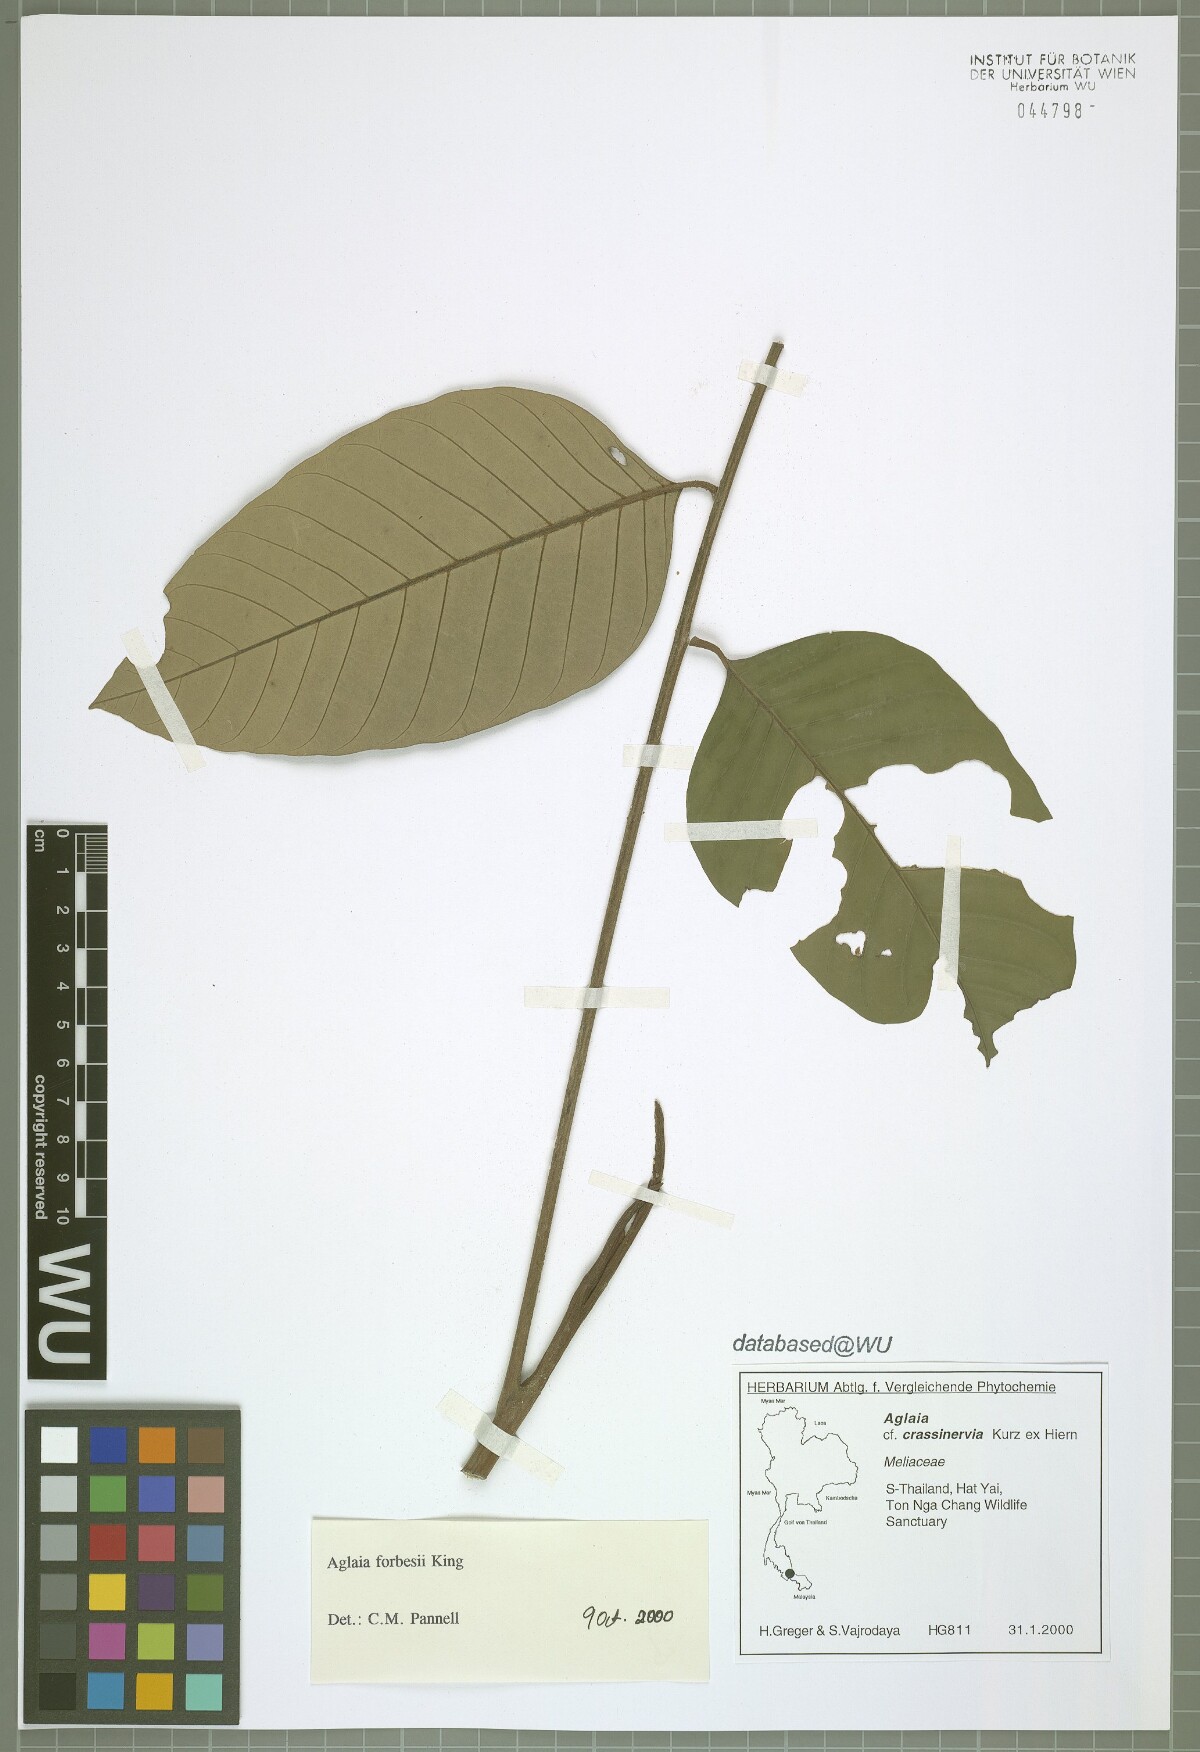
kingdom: Plantae
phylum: Tracheophyta
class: Magnoliopsida
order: Sapindales
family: Meliaceae
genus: Aglaia
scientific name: Aglaia forbesii
